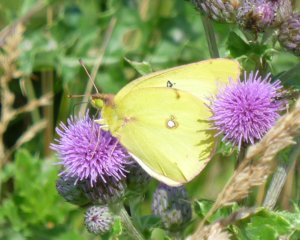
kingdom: Animalia
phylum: Arthropoda
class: Insecta
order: Lepidoptera
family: Pieridae
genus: Colias
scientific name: Colias philodice
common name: Clouded Sulphur
